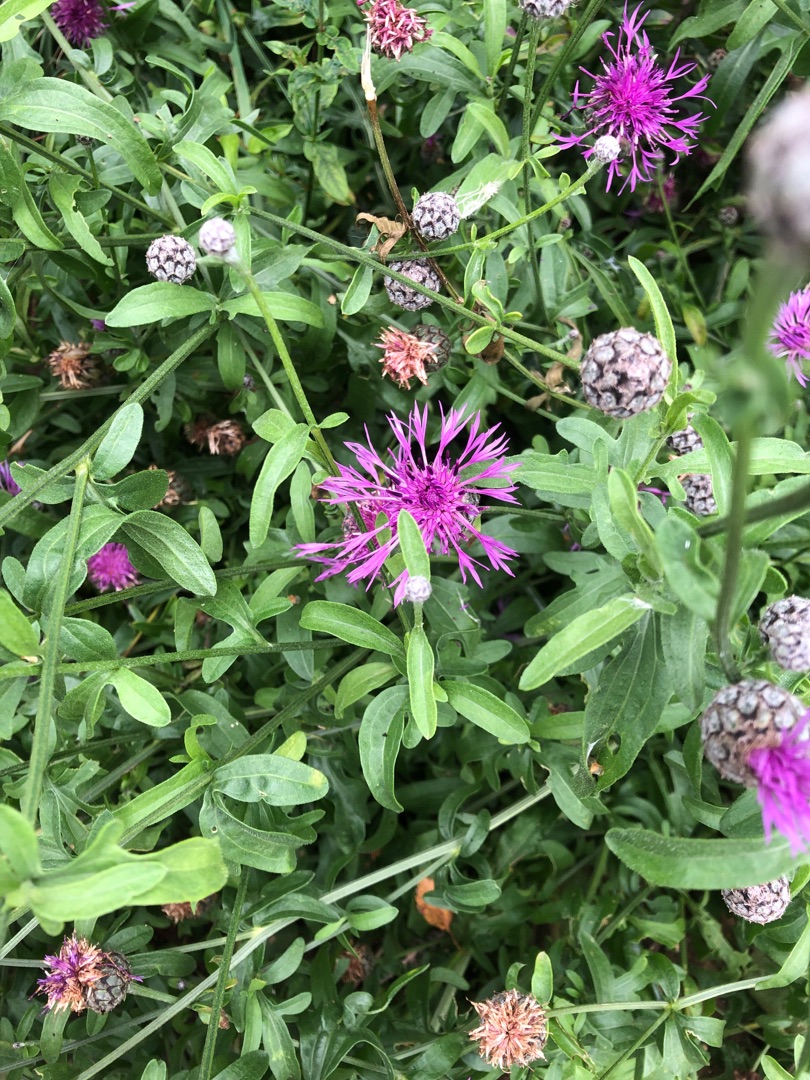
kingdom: Plantae
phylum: Tracheophyta
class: Magnoliopsida
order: Asterales
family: Asteraceae
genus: Centaurea
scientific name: Centaurea scabiosa
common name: Stor knopurt
